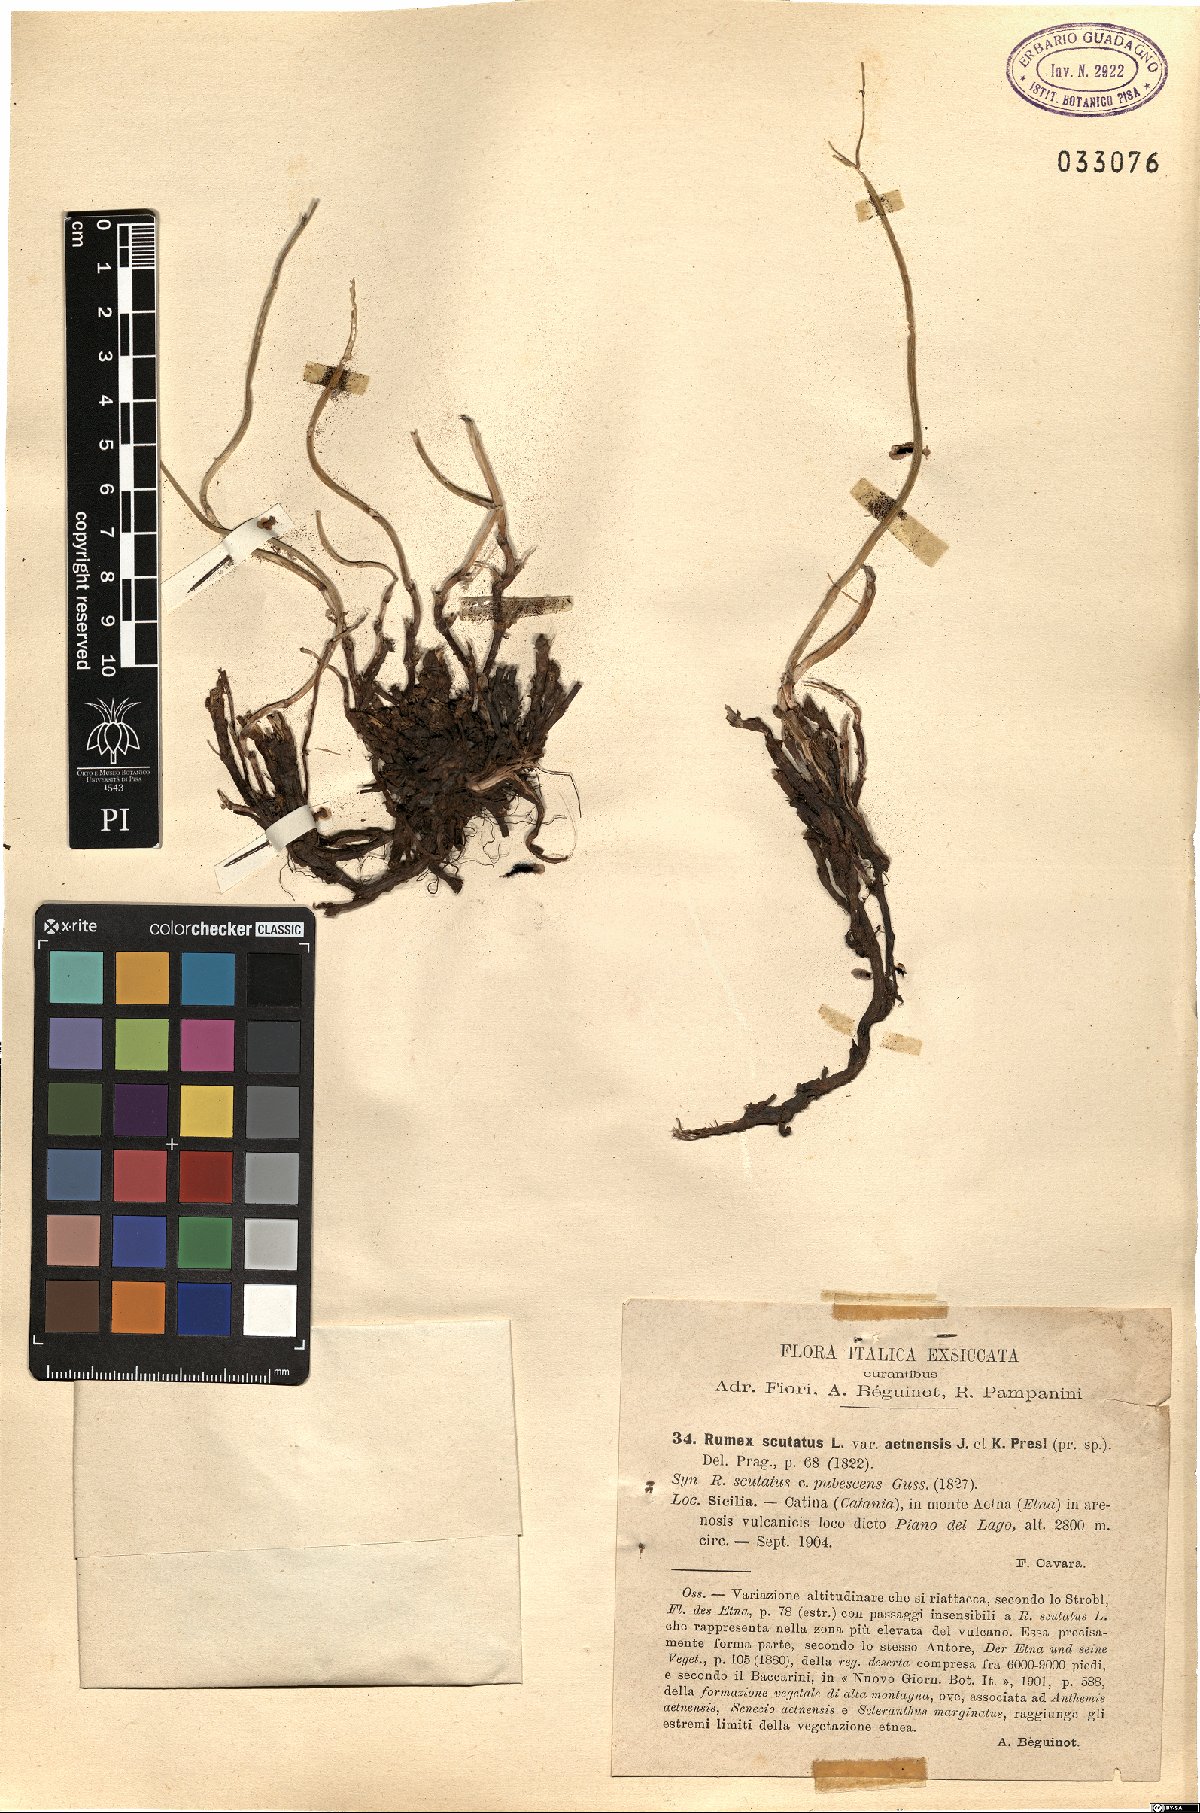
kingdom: Plantae
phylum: Tracheophyta
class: Magnoliopsida
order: Caryophyllales
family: Polygonaceae
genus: Rumex
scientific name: Rumex scutatus
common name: French sorrel
